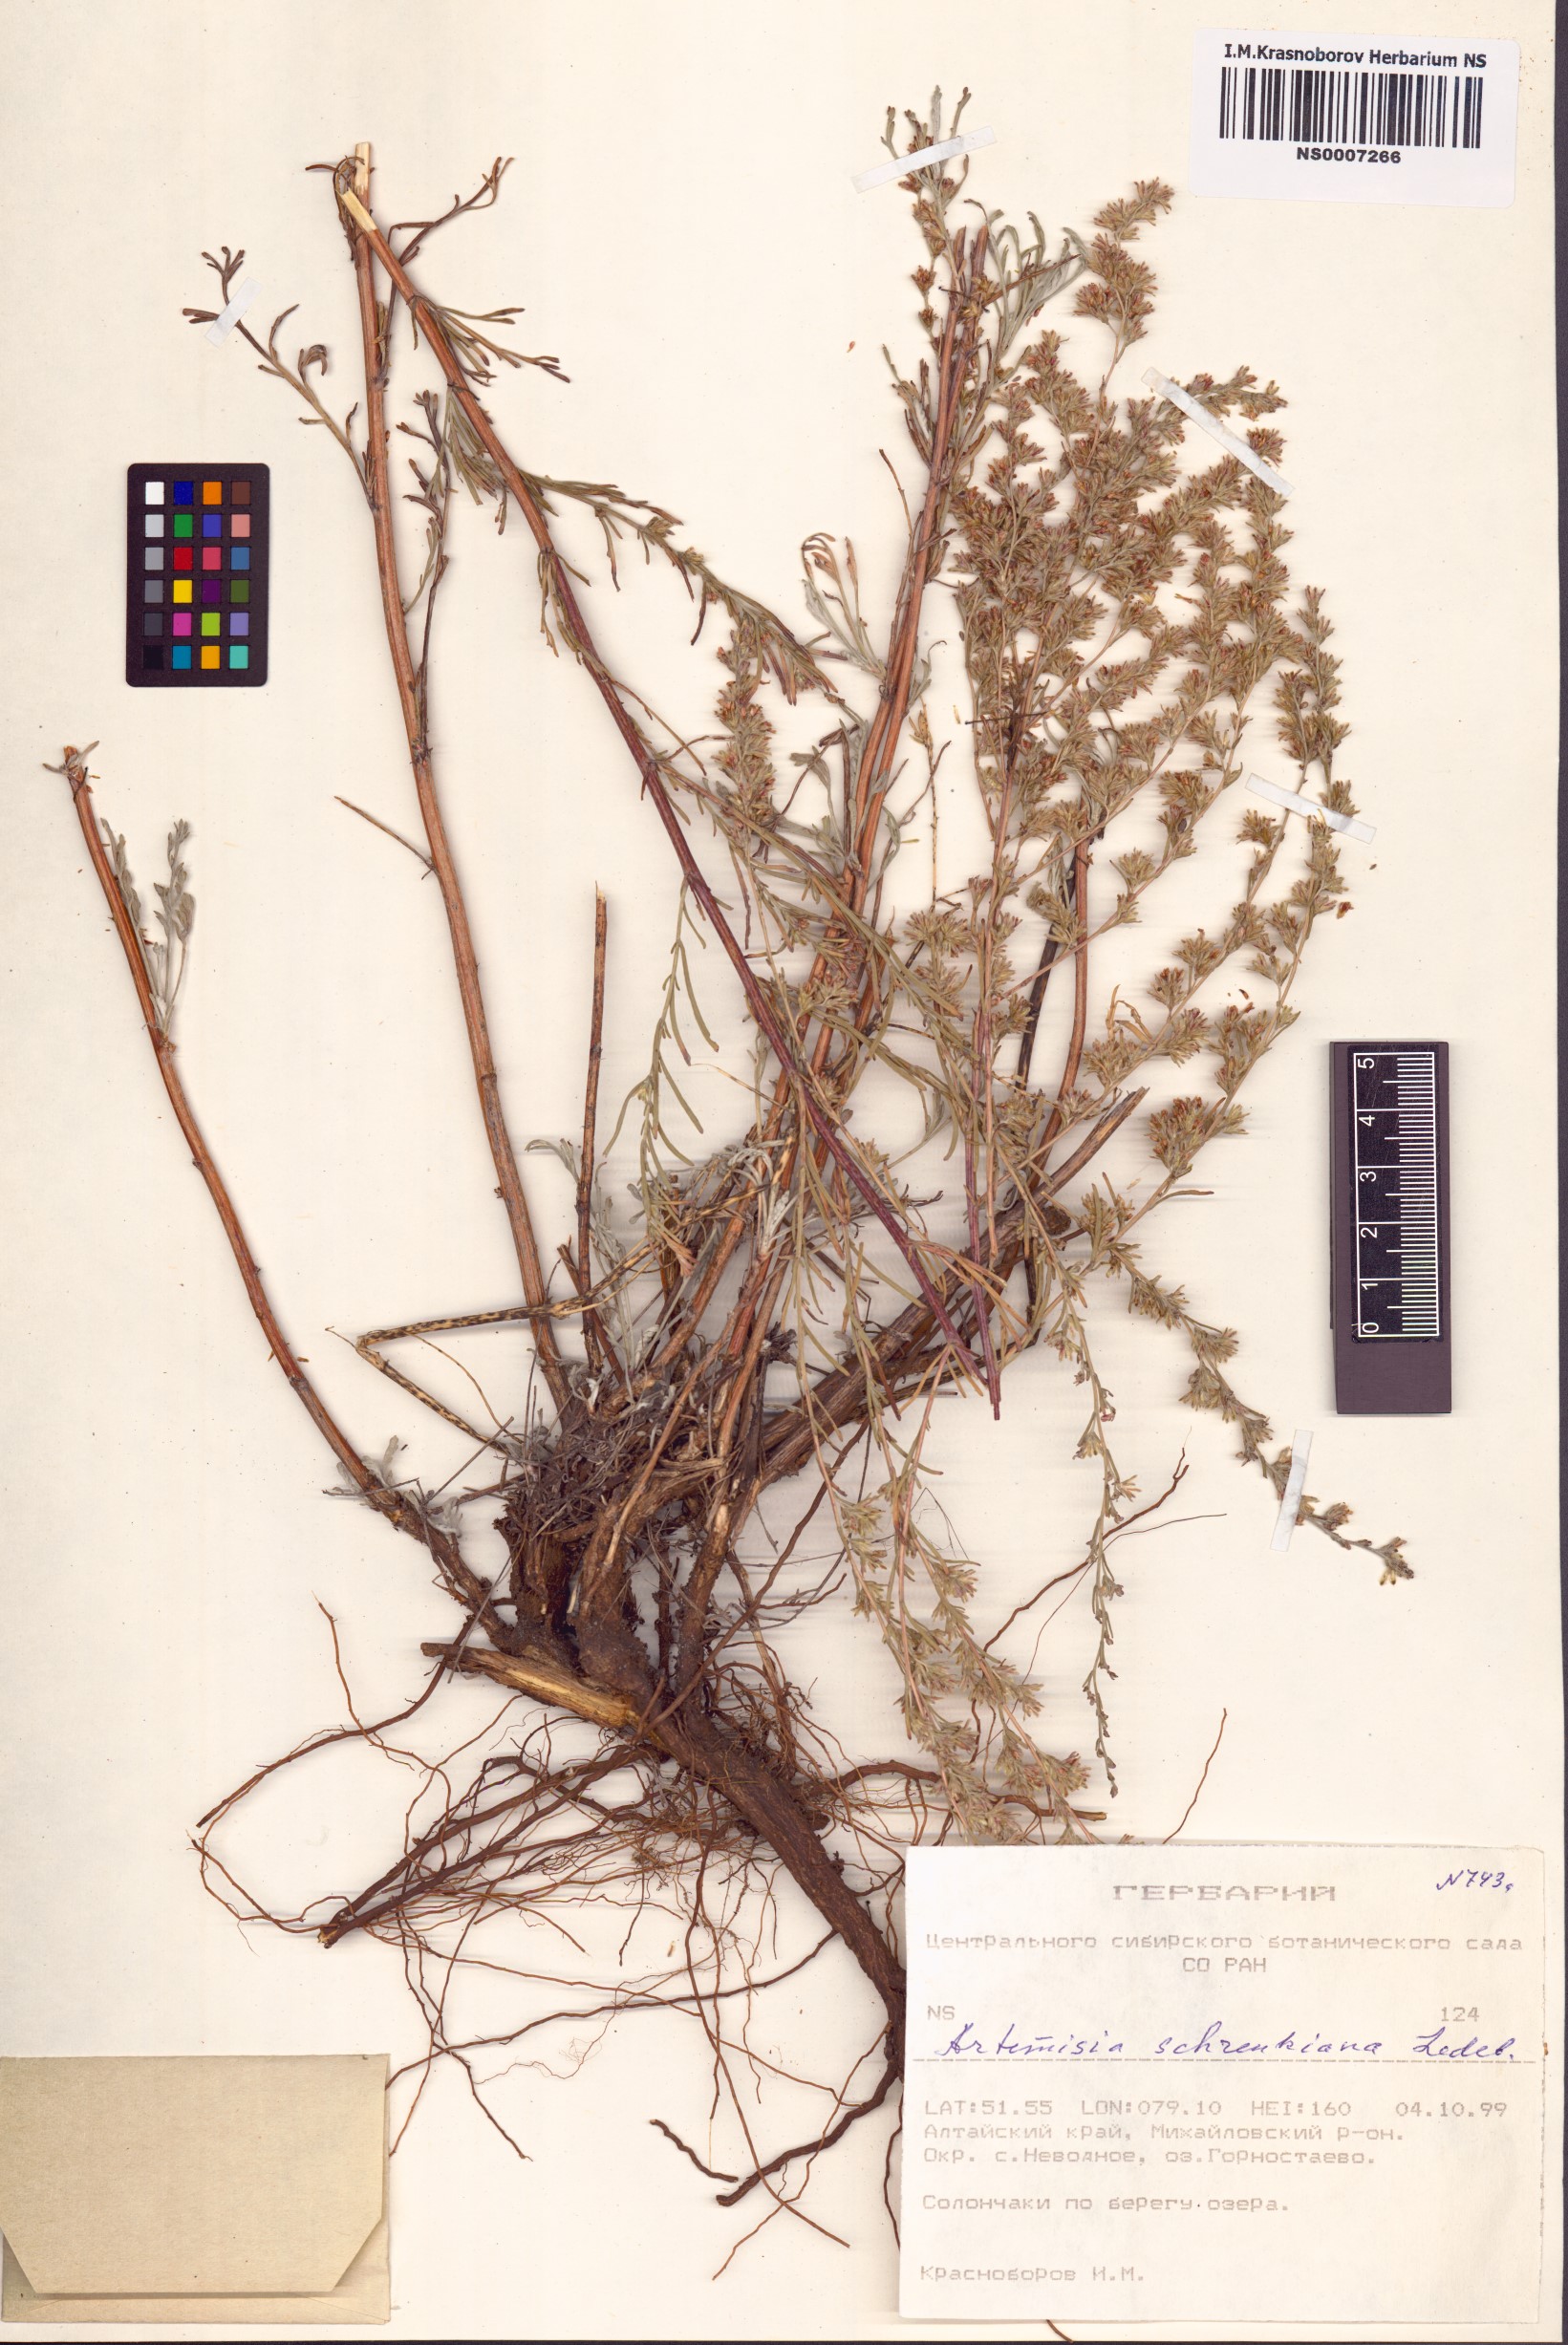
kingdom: Plantae
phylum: Tracheophyta
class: Magnoliopsida
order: Asterales
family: Asteraceae
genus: Artemisia
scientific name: Artemisia schrenkiana
